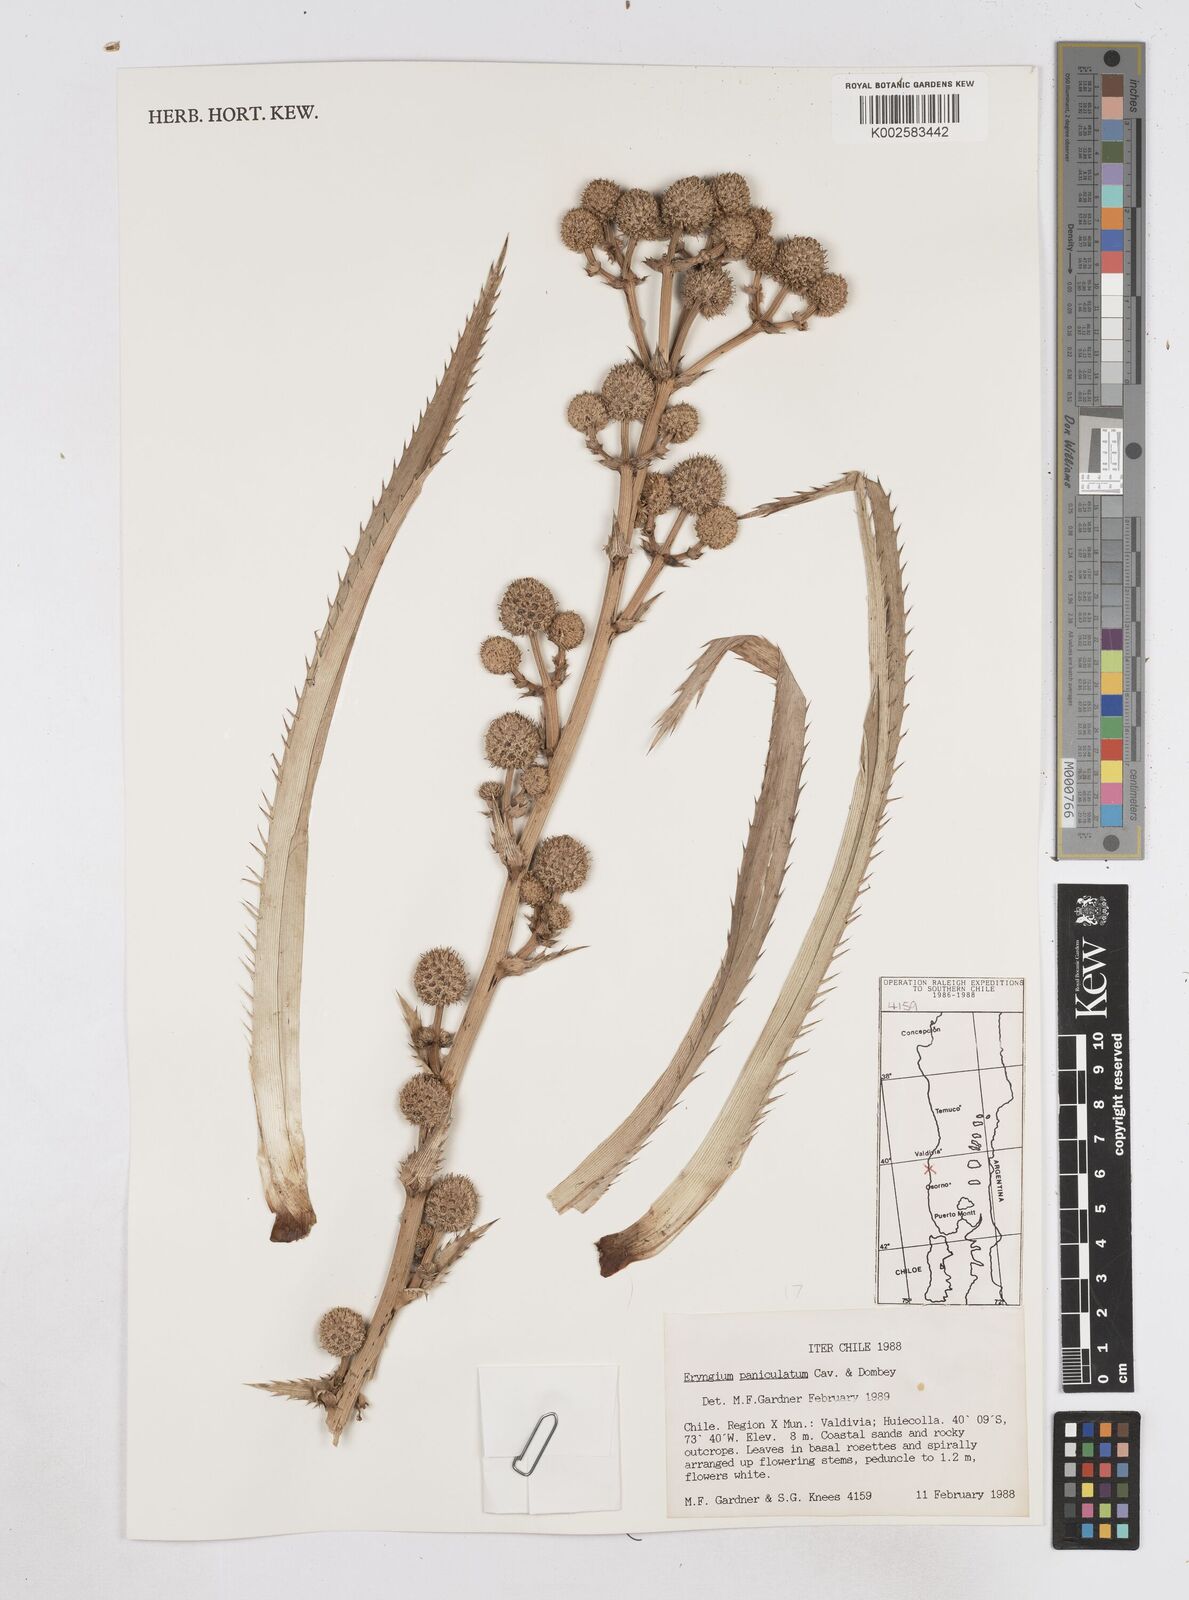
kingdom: Plantae
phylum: Tracheophyta
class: Magnoliopsida
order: Apiales
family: Apiaceae
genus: Eryngium
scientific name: Eryngium humboldtii
